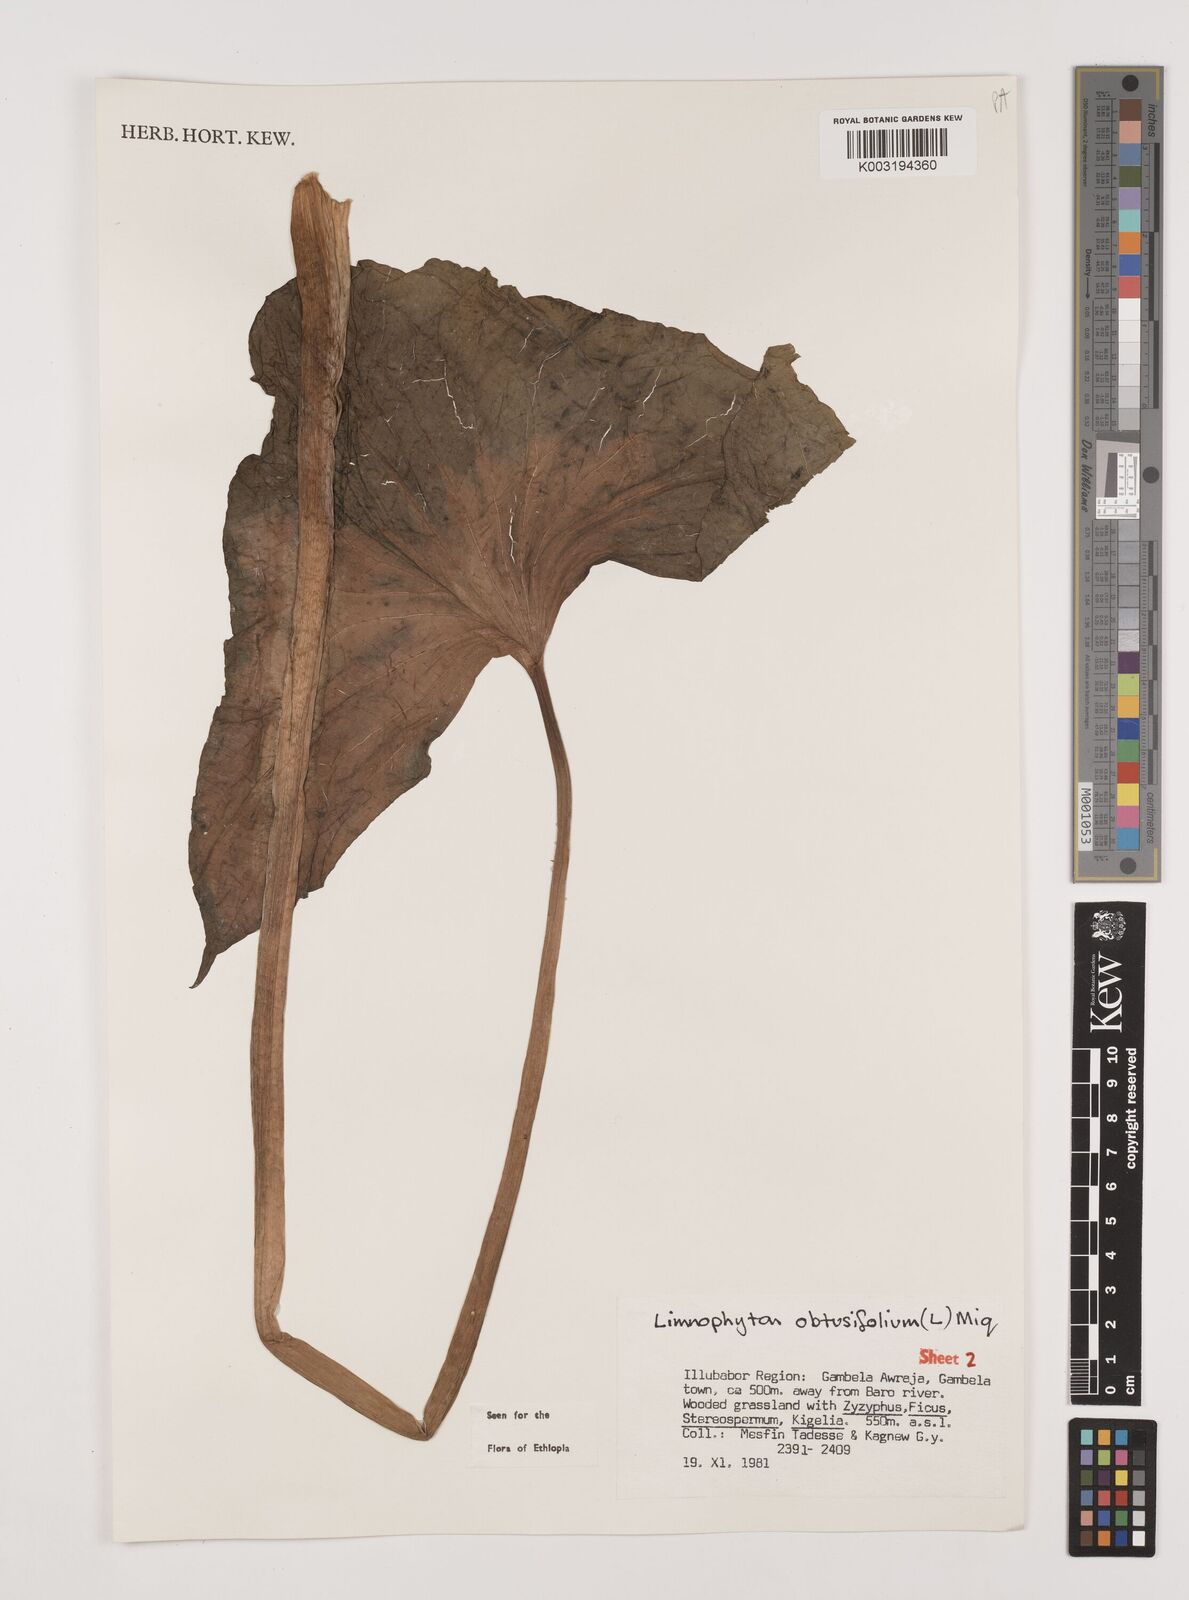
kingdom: Plantae
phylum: Tracheophyta
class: Liliopsida
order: Alismatales
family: Alismataceae
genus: Limnophyton
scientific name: Limnophyton obtusifolium
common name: Arrow head
